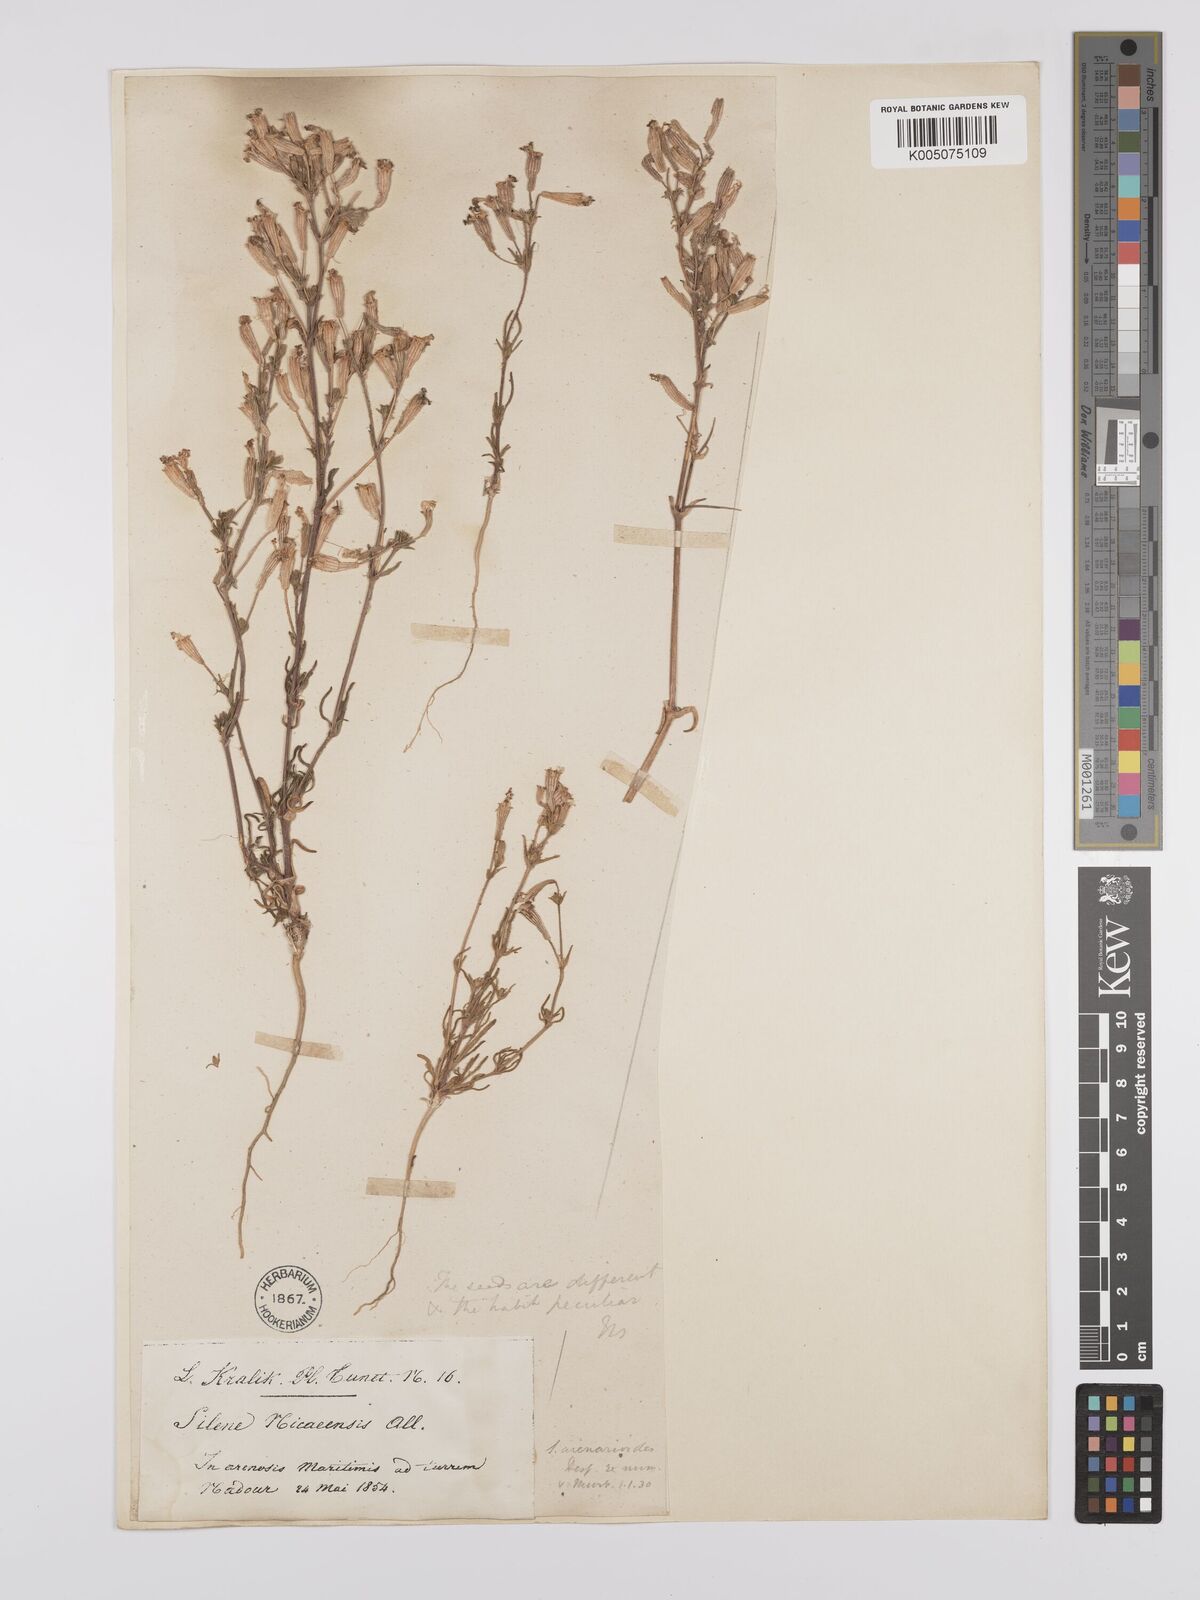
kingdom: Plantae
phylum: Tracheophyta
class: Magnoliopsida
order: Caryophyllales
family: Caryophyllaceae
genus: Silene
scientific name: Silene nicaeensis
